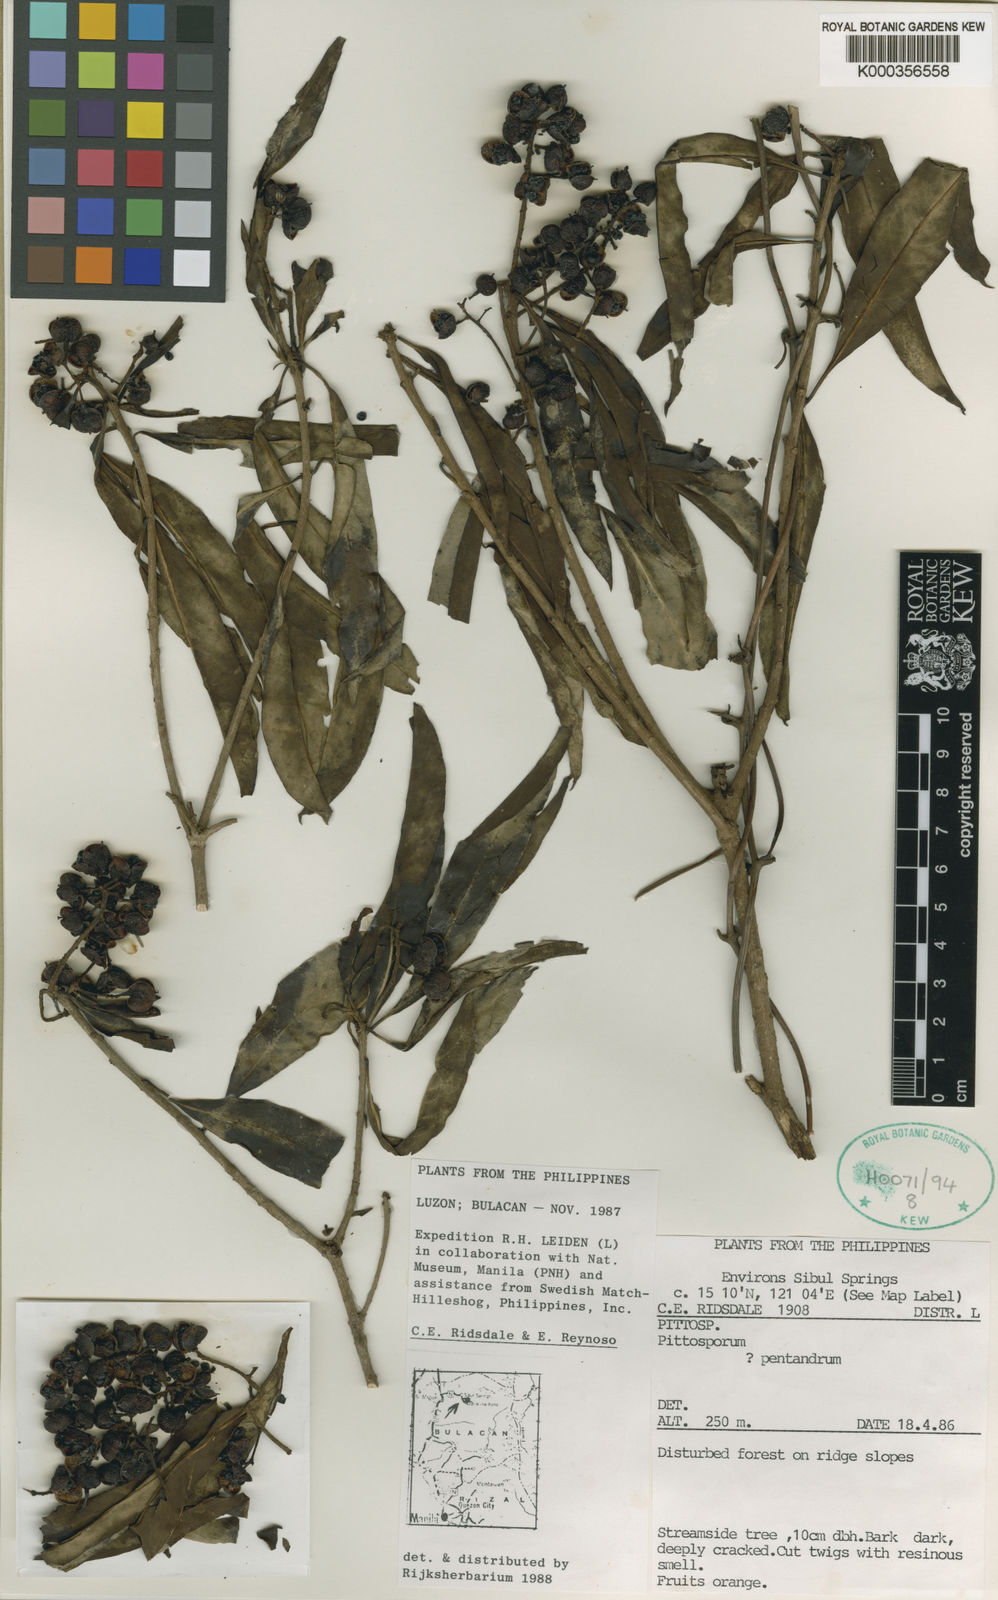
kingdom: Plantae
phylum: Tracheophyta
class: Magnoliopsida
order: Apiales
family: Pittosporaceae
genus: Pittosporum
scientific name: Pittosporum pentandrum
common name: Taiwanese cheesewood
